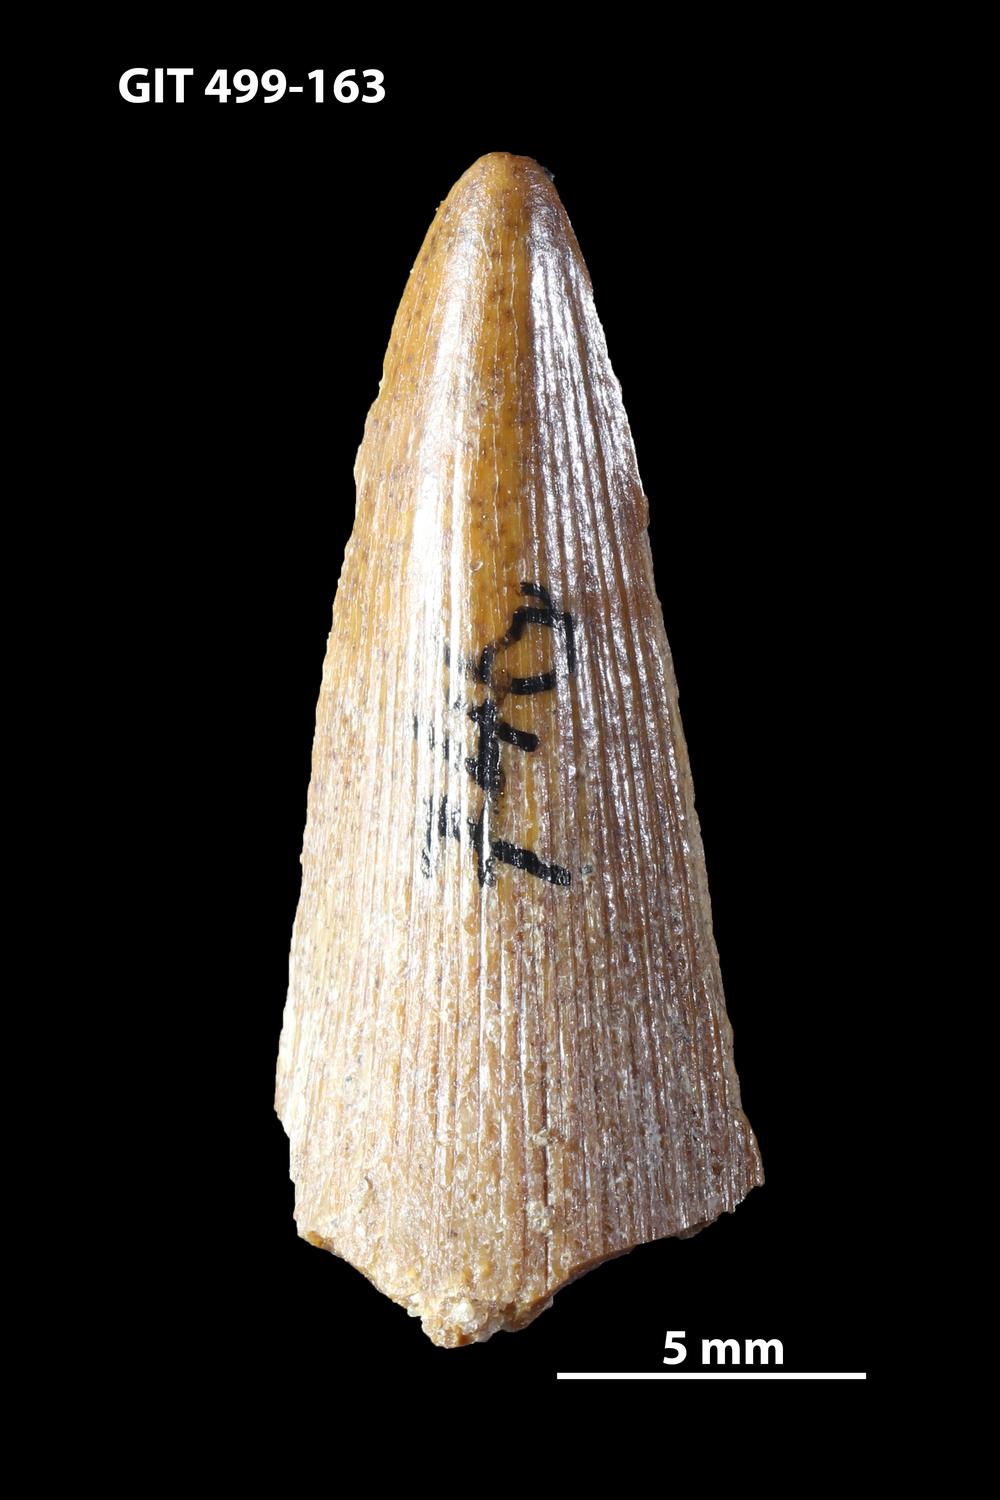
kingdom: Animalia
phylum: Chordata
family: Holoptychiidae
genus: Glyptolepis
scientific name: Glyptolepis
